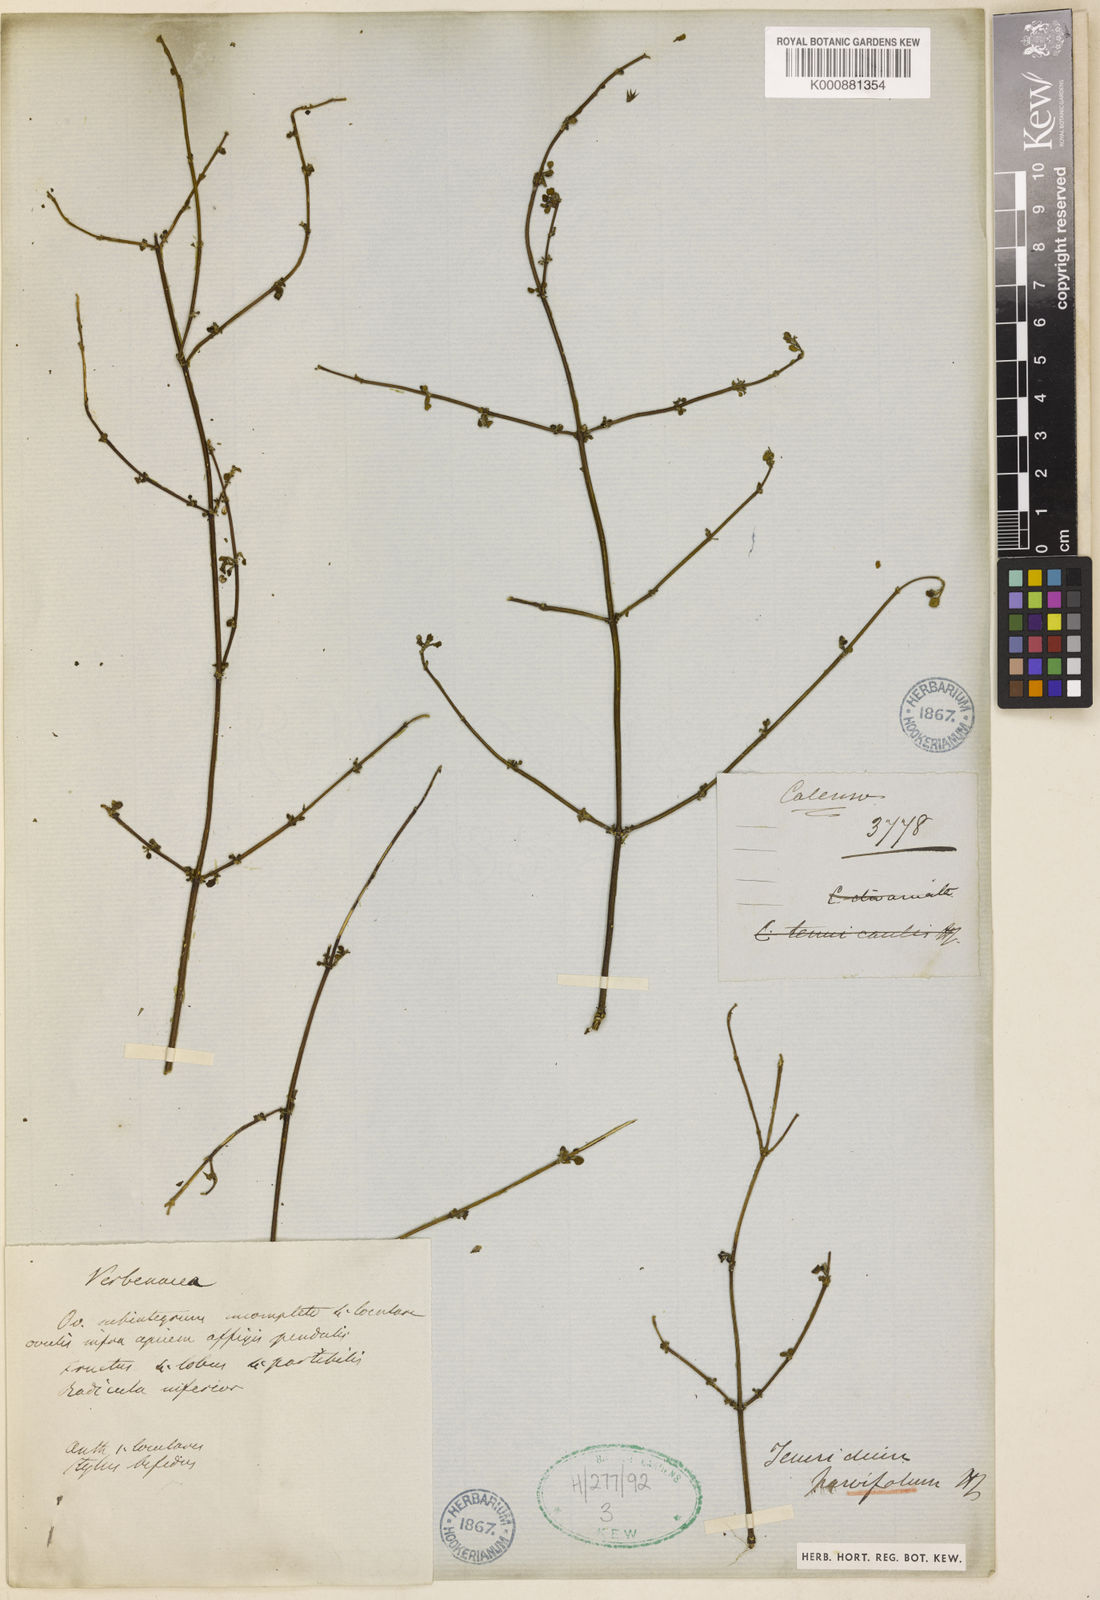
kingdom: Plantae
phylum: Tracheophyta
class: Magnoliopsida
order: Lamiales
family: Lamiaceae
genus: Teucrium
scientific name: Teucrium parvifolium
